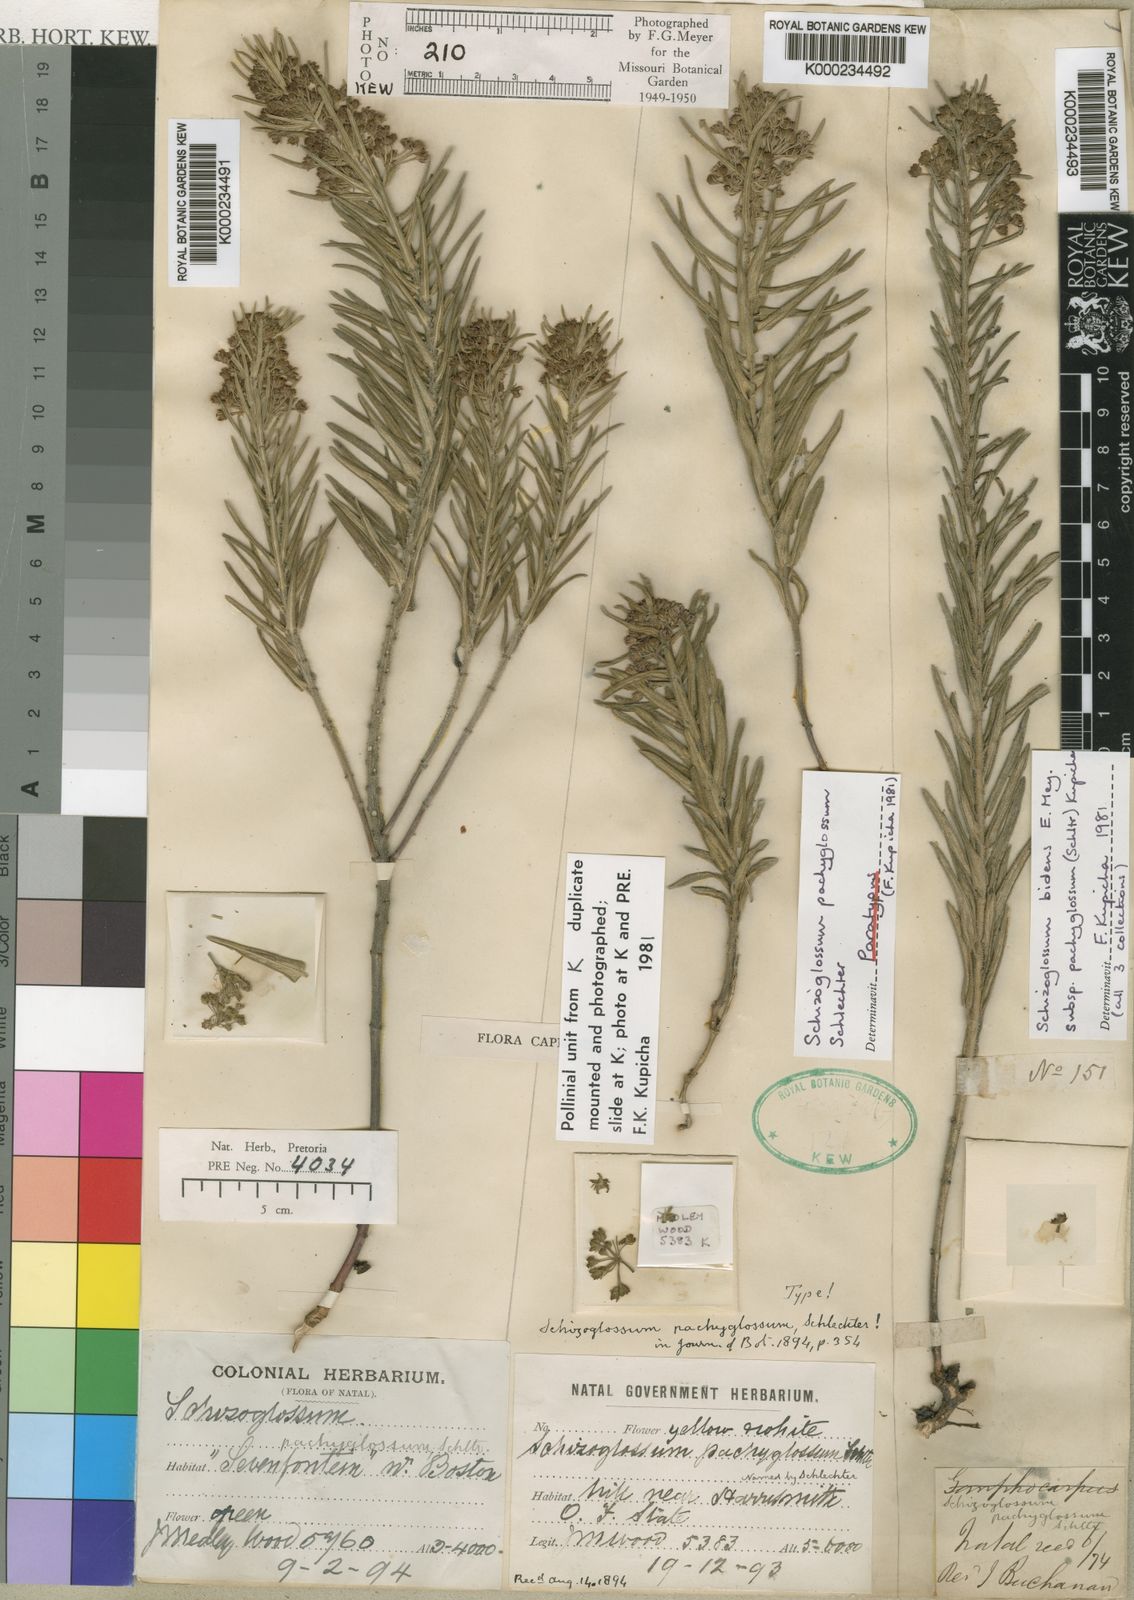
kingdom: Plantae
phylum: Tracheophyta
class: Magnoliopsida
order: Gentianales
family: Apocynaceae
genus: Schizoglossum
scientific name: Schizoglossum bidens
